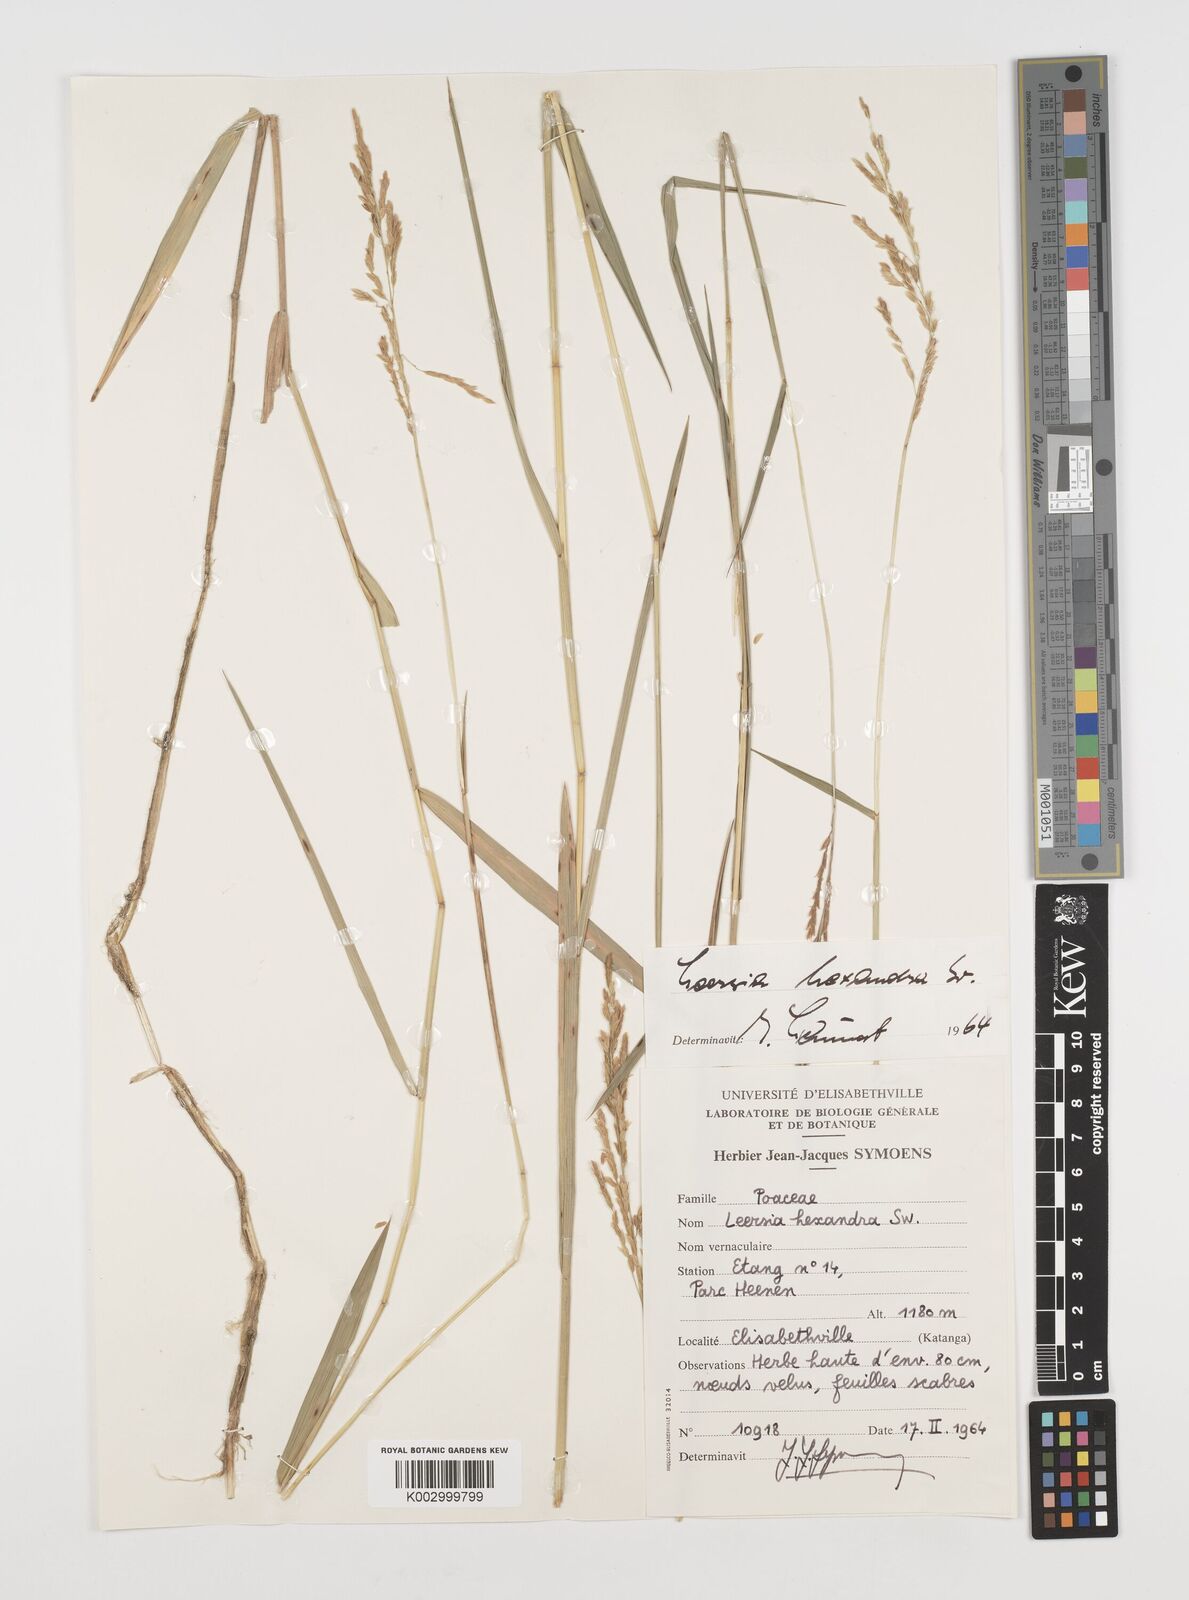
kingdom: Plantae
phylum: Tracheophyta
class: Liliopsida
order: Poales
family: Poaceae
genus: Leersia
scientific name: Leersia hexandra
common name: Southern cut grass
